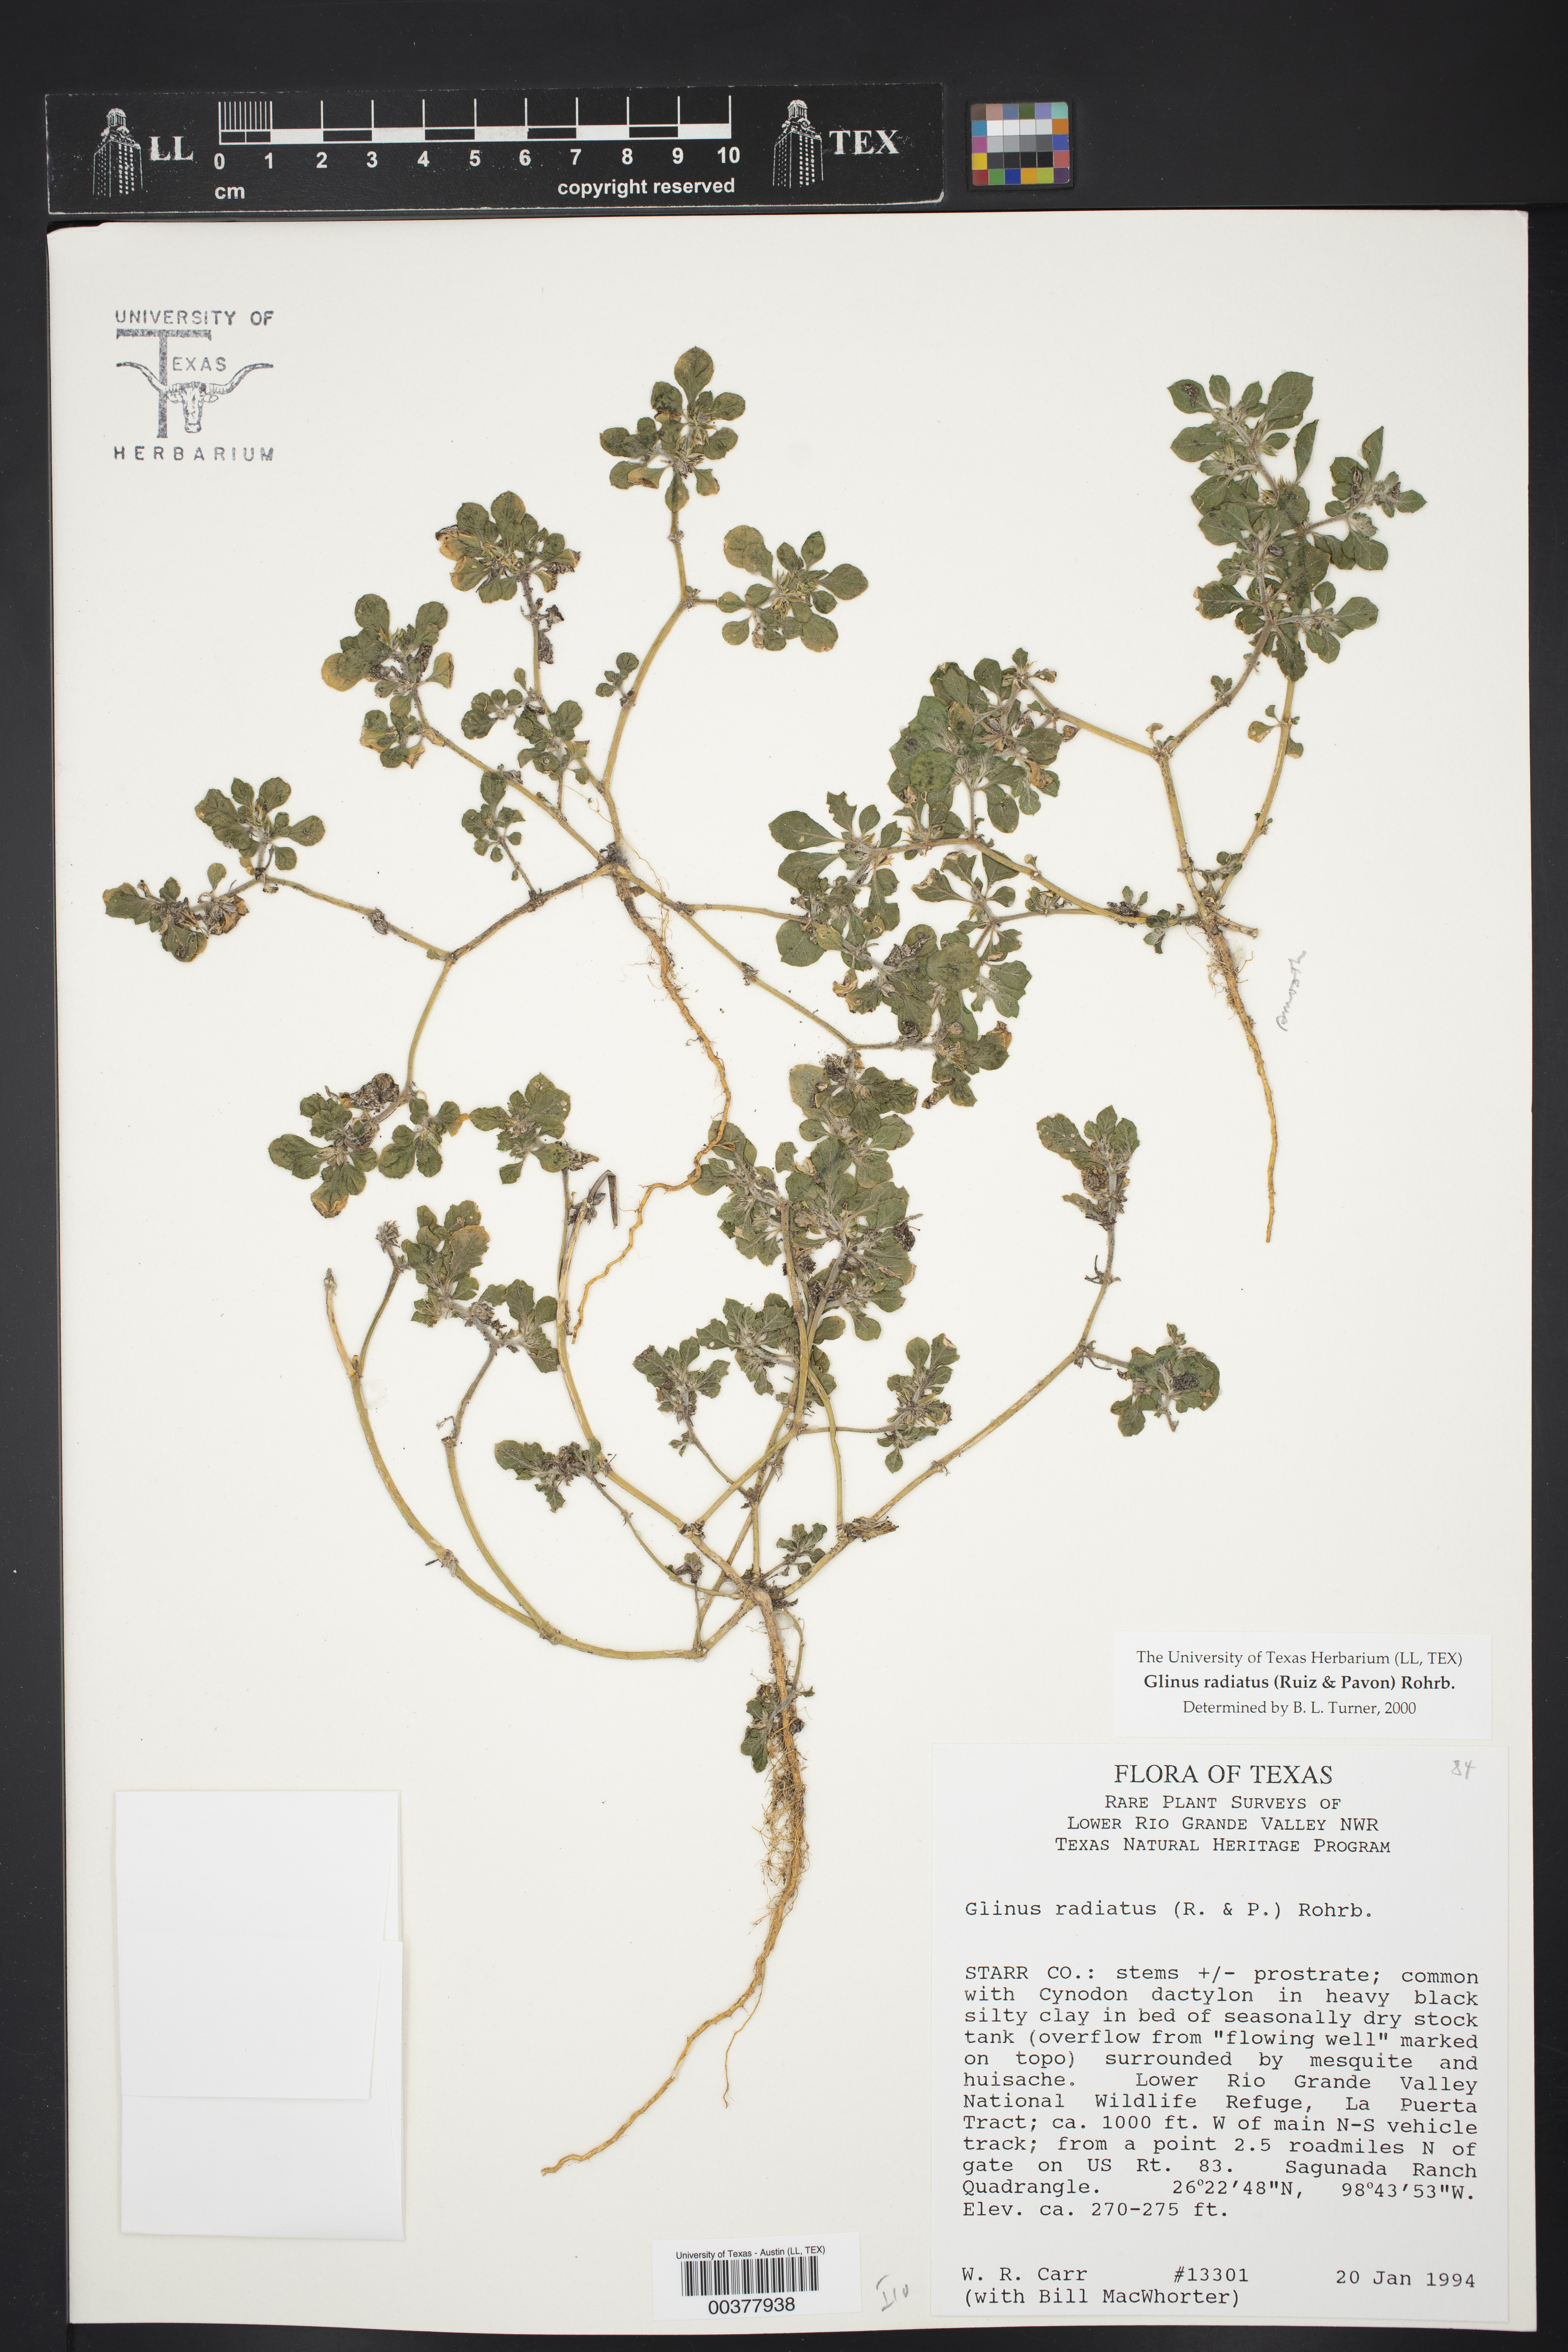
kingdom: Plantae
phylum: Tracheophyta
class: Magnoliopsida
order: Caryophyllales
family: Molluginaceae
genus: Glinus
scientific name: Glinus radiatus
